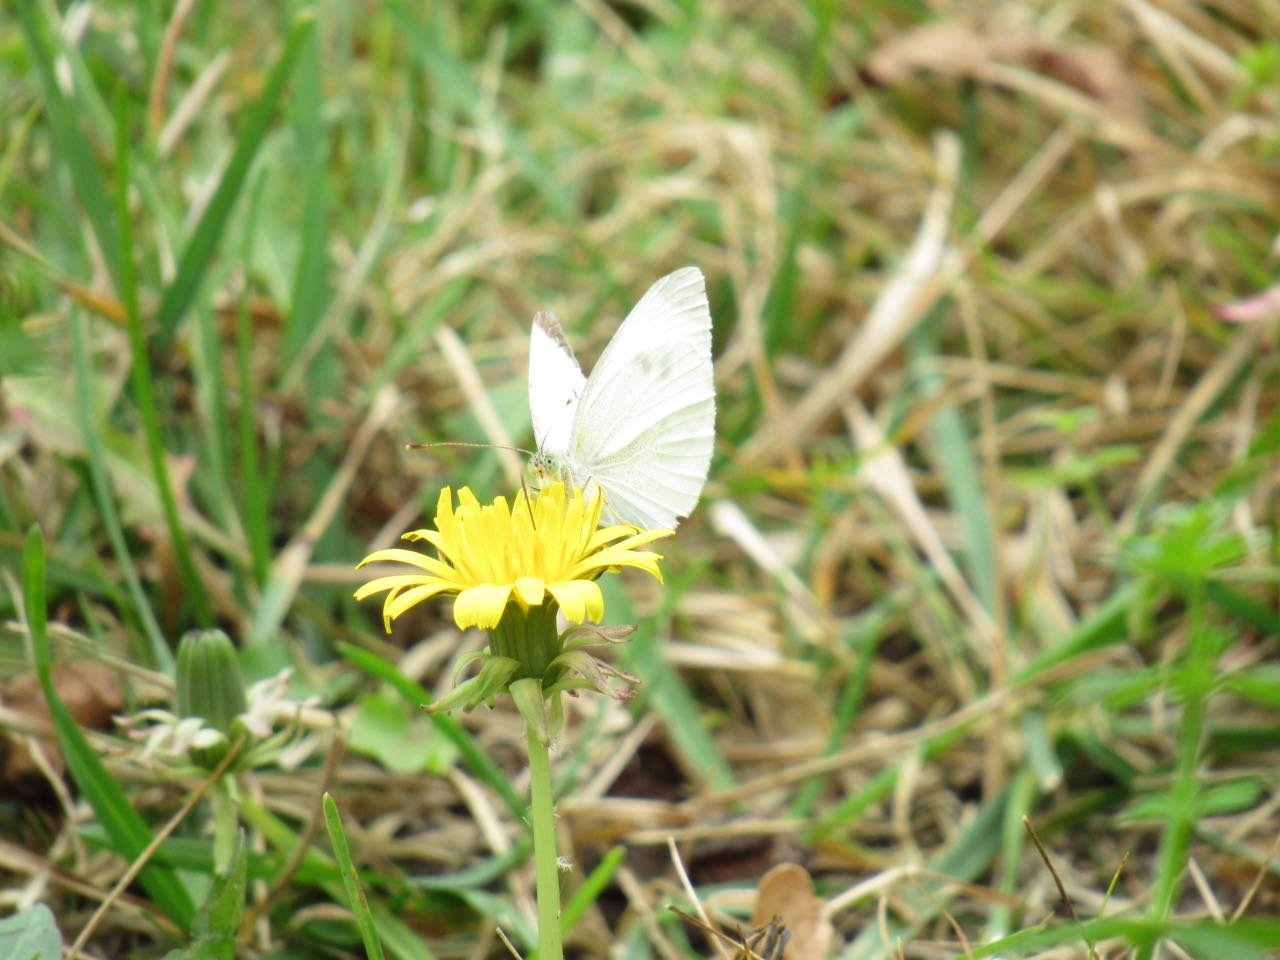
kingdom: Animalia
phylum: Arthropoda
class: Insecta
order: Lepidoptera
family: Pieridae
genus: Pieris
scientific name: Pieris rapae
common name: Cabbage White
